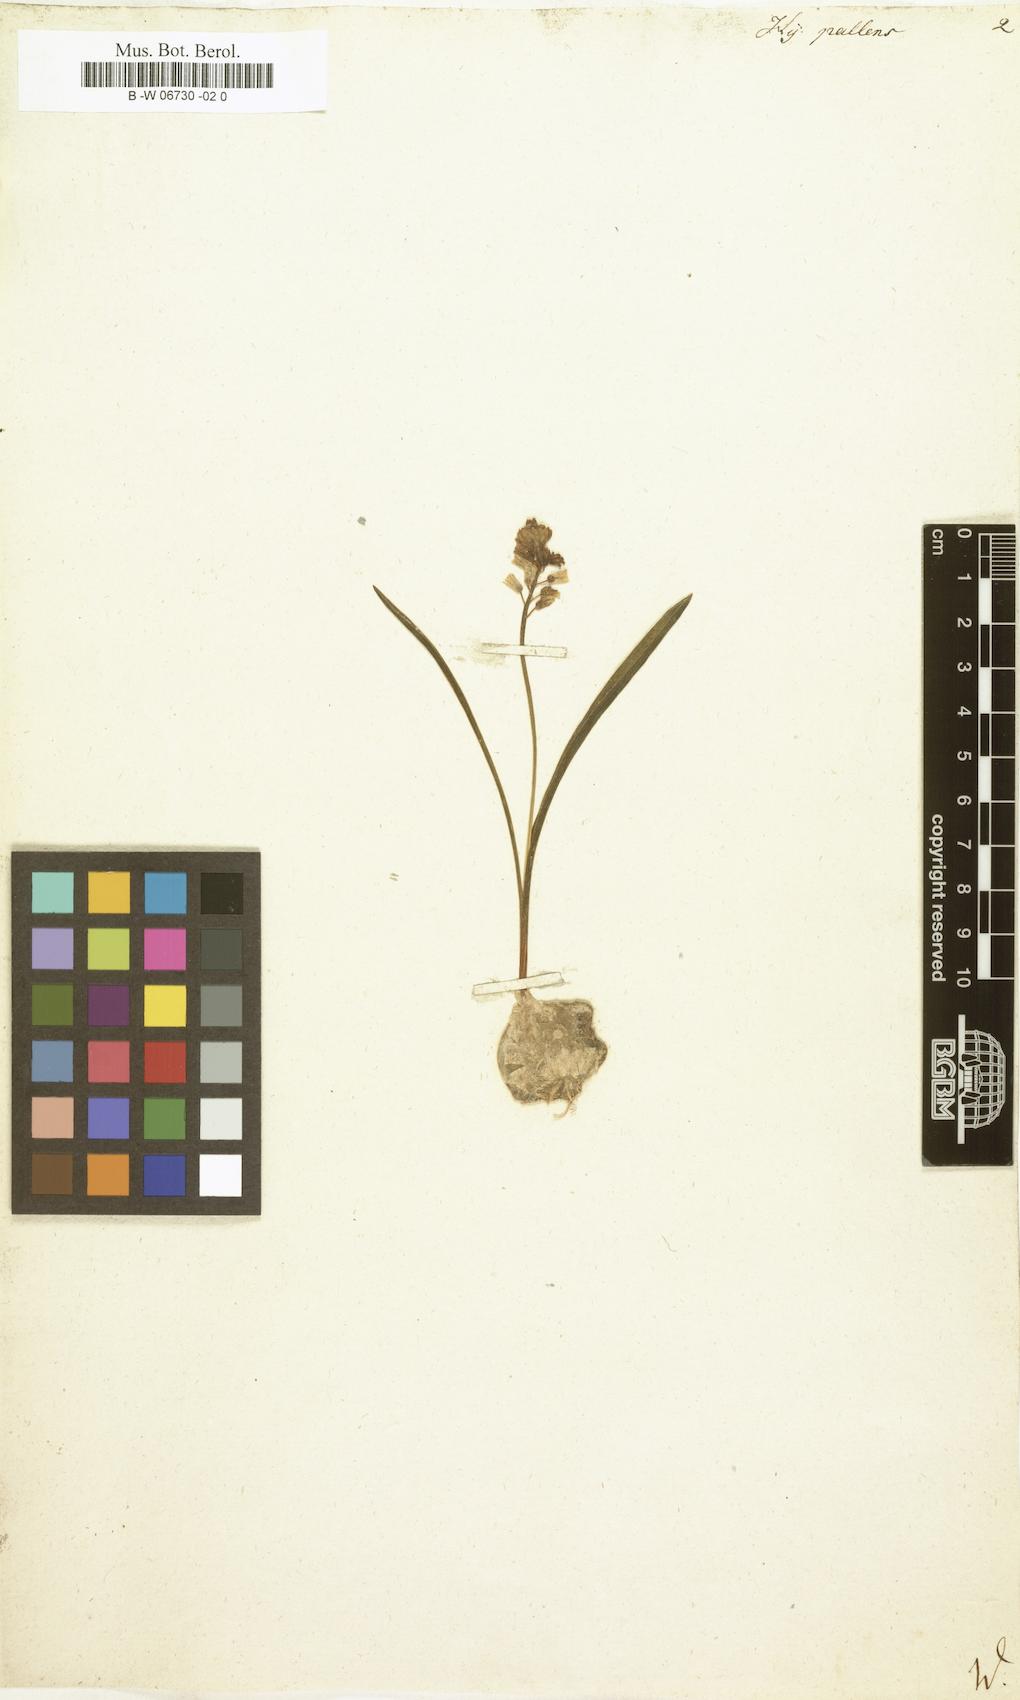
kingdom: Plantae
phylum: Tracheophyta
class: Liliopsida
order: Asparagales
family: Asparagaceae
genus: Hyacinthus
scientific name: Hyacinthus pallens
